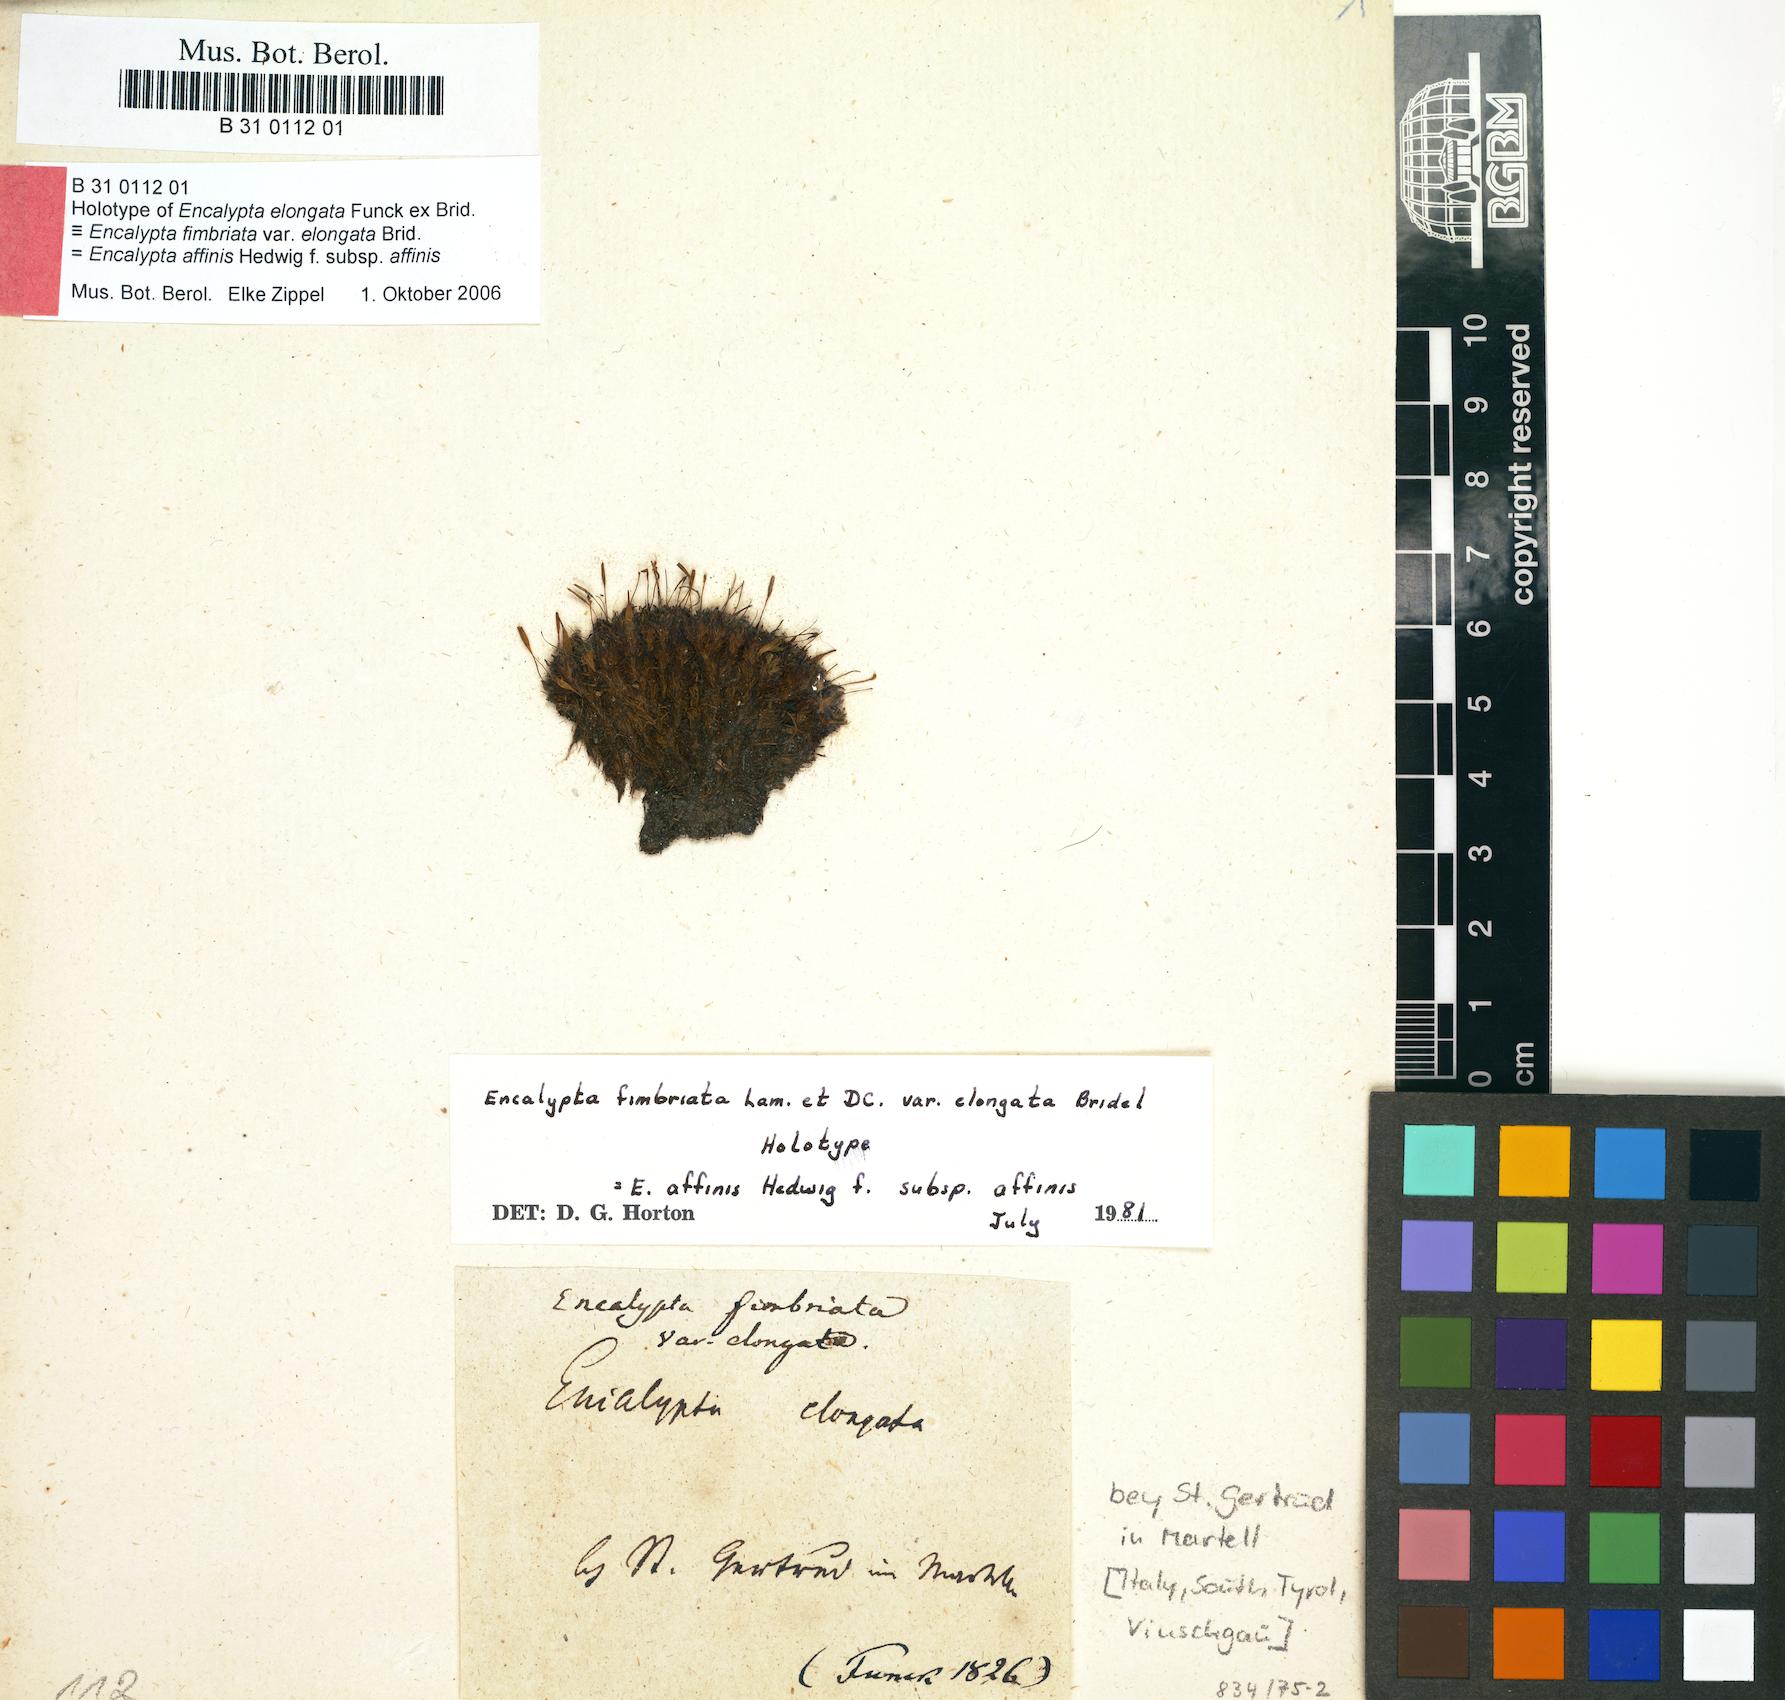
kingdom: Plantae
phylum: Bryophyta
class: Bryopsida
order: Encalyptales
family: Encalyptaceae
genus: Encalypta
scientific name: Encalypta affinis
